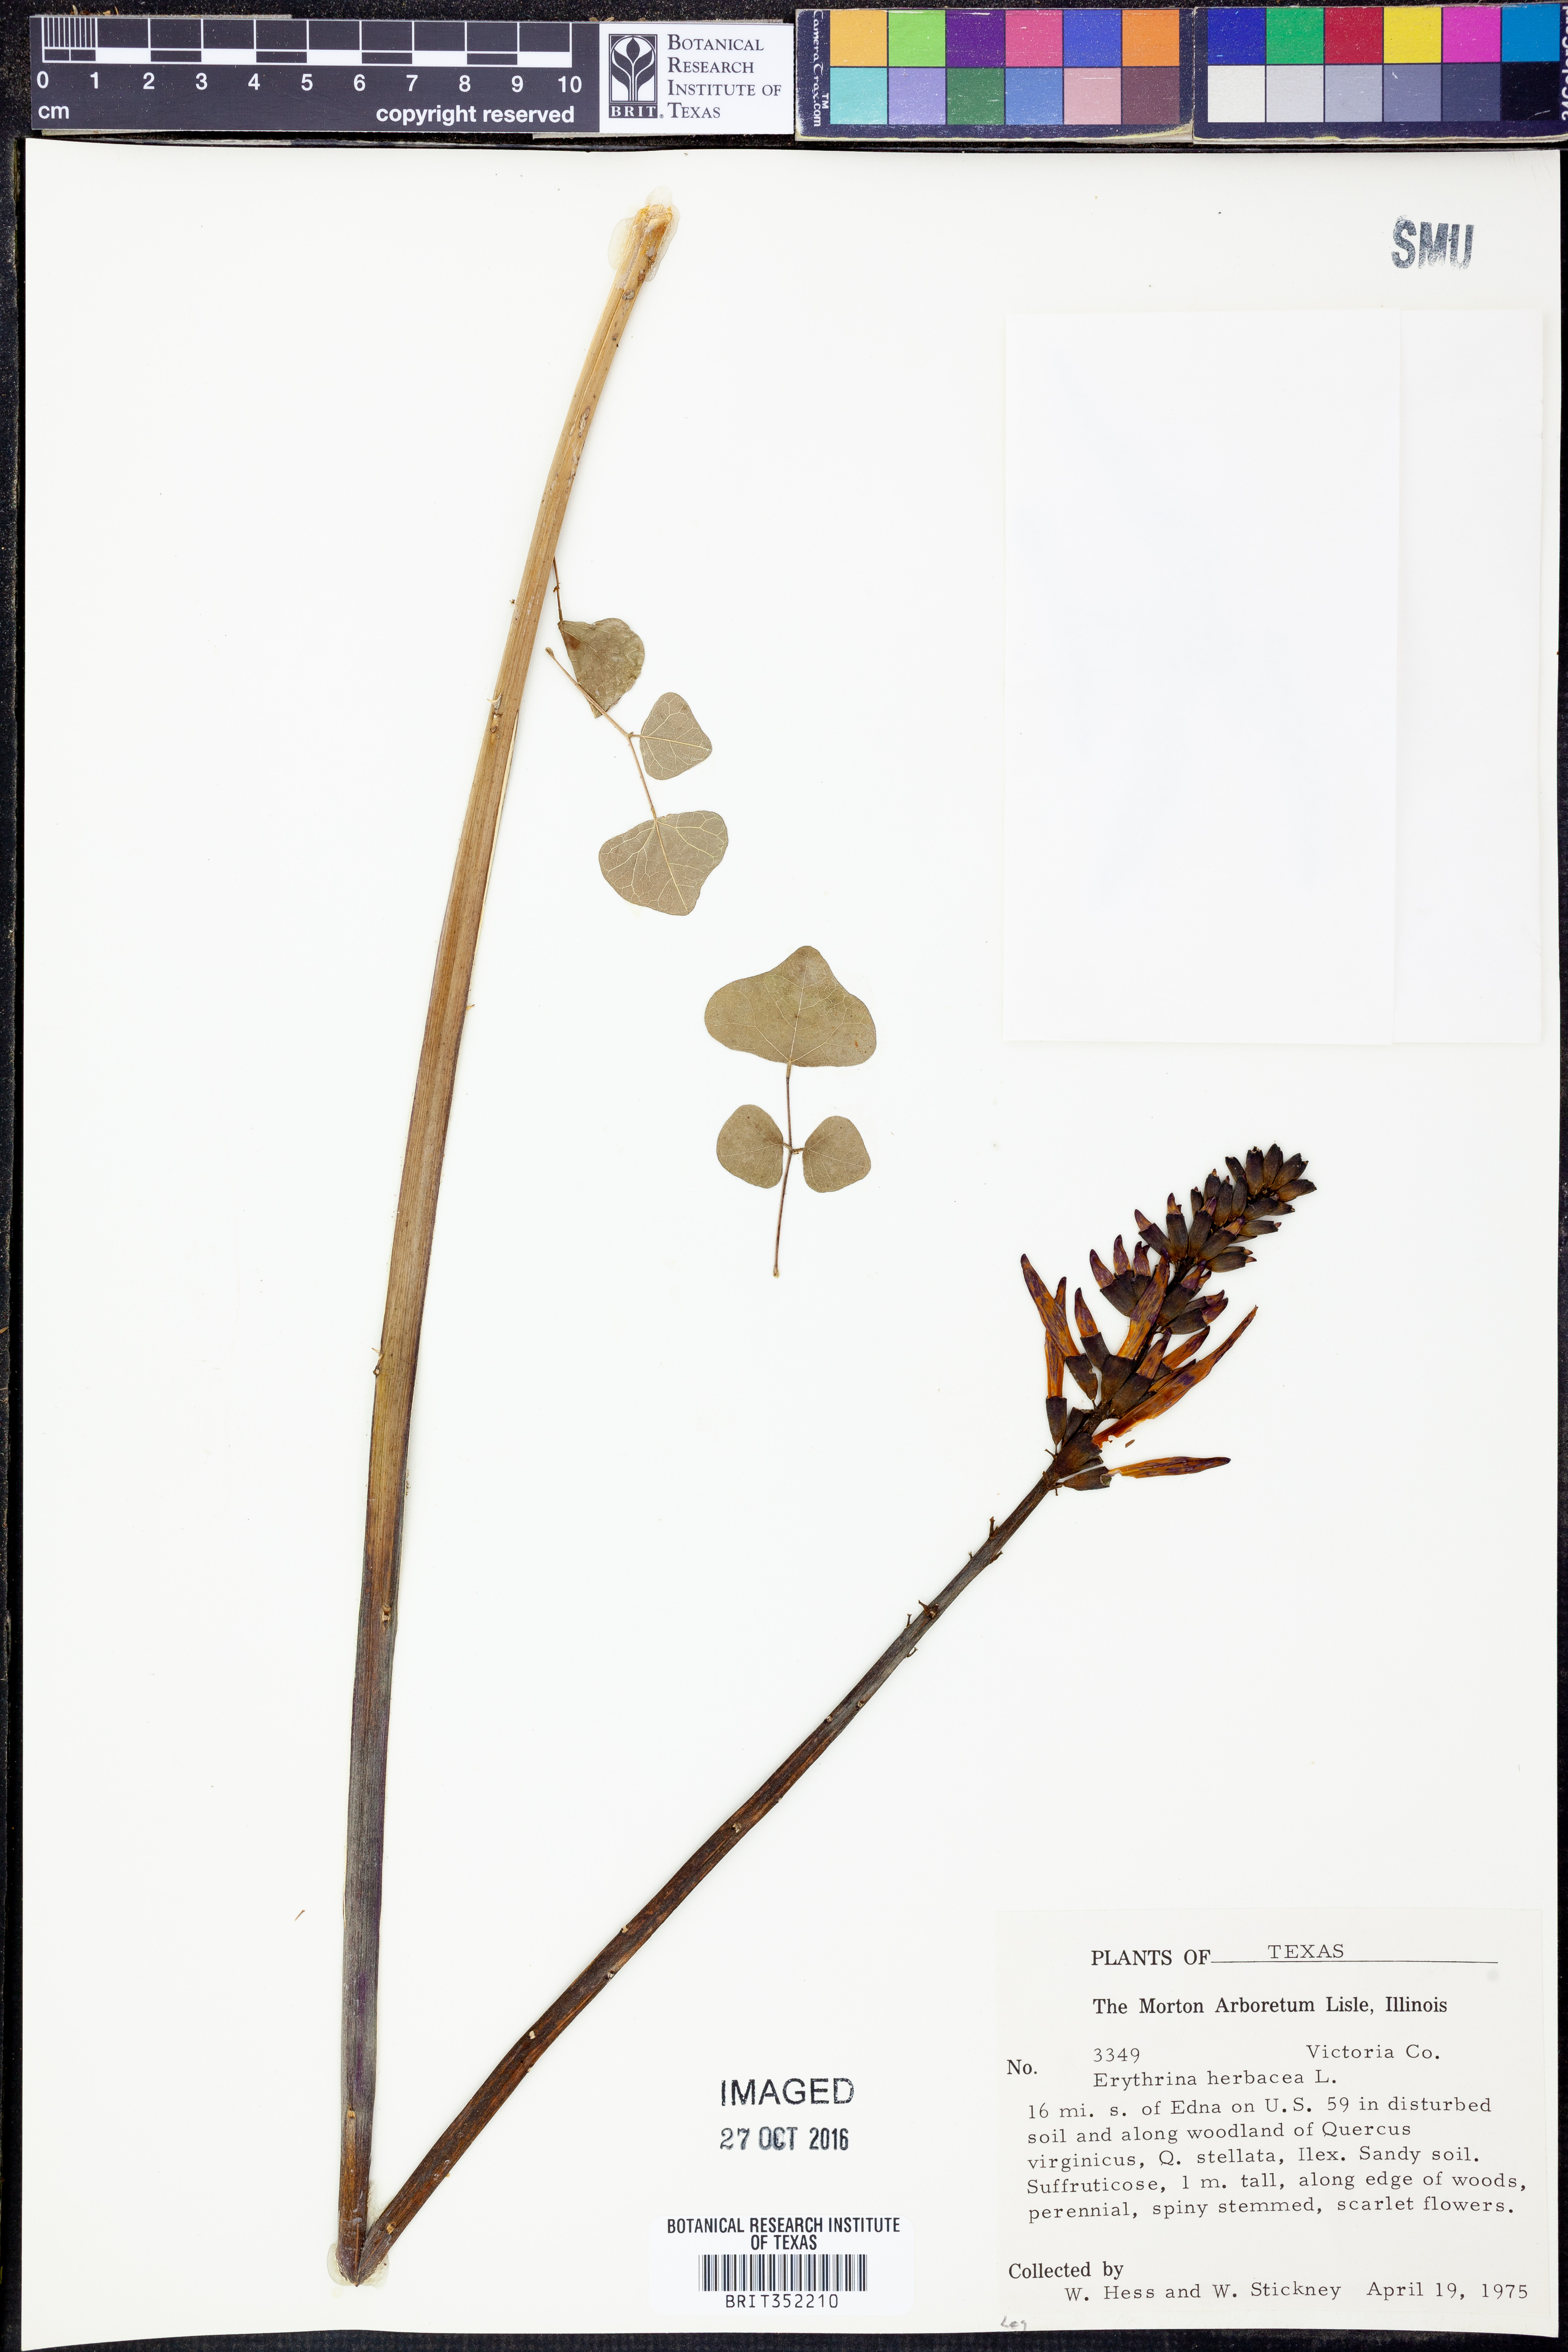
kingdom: Plantae
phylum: Tracheophyta
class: Magnoliopsida
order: Fabales
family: Fabaceae
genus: Erythrina
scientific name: Erythrina herbacea
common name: Coral-bean
